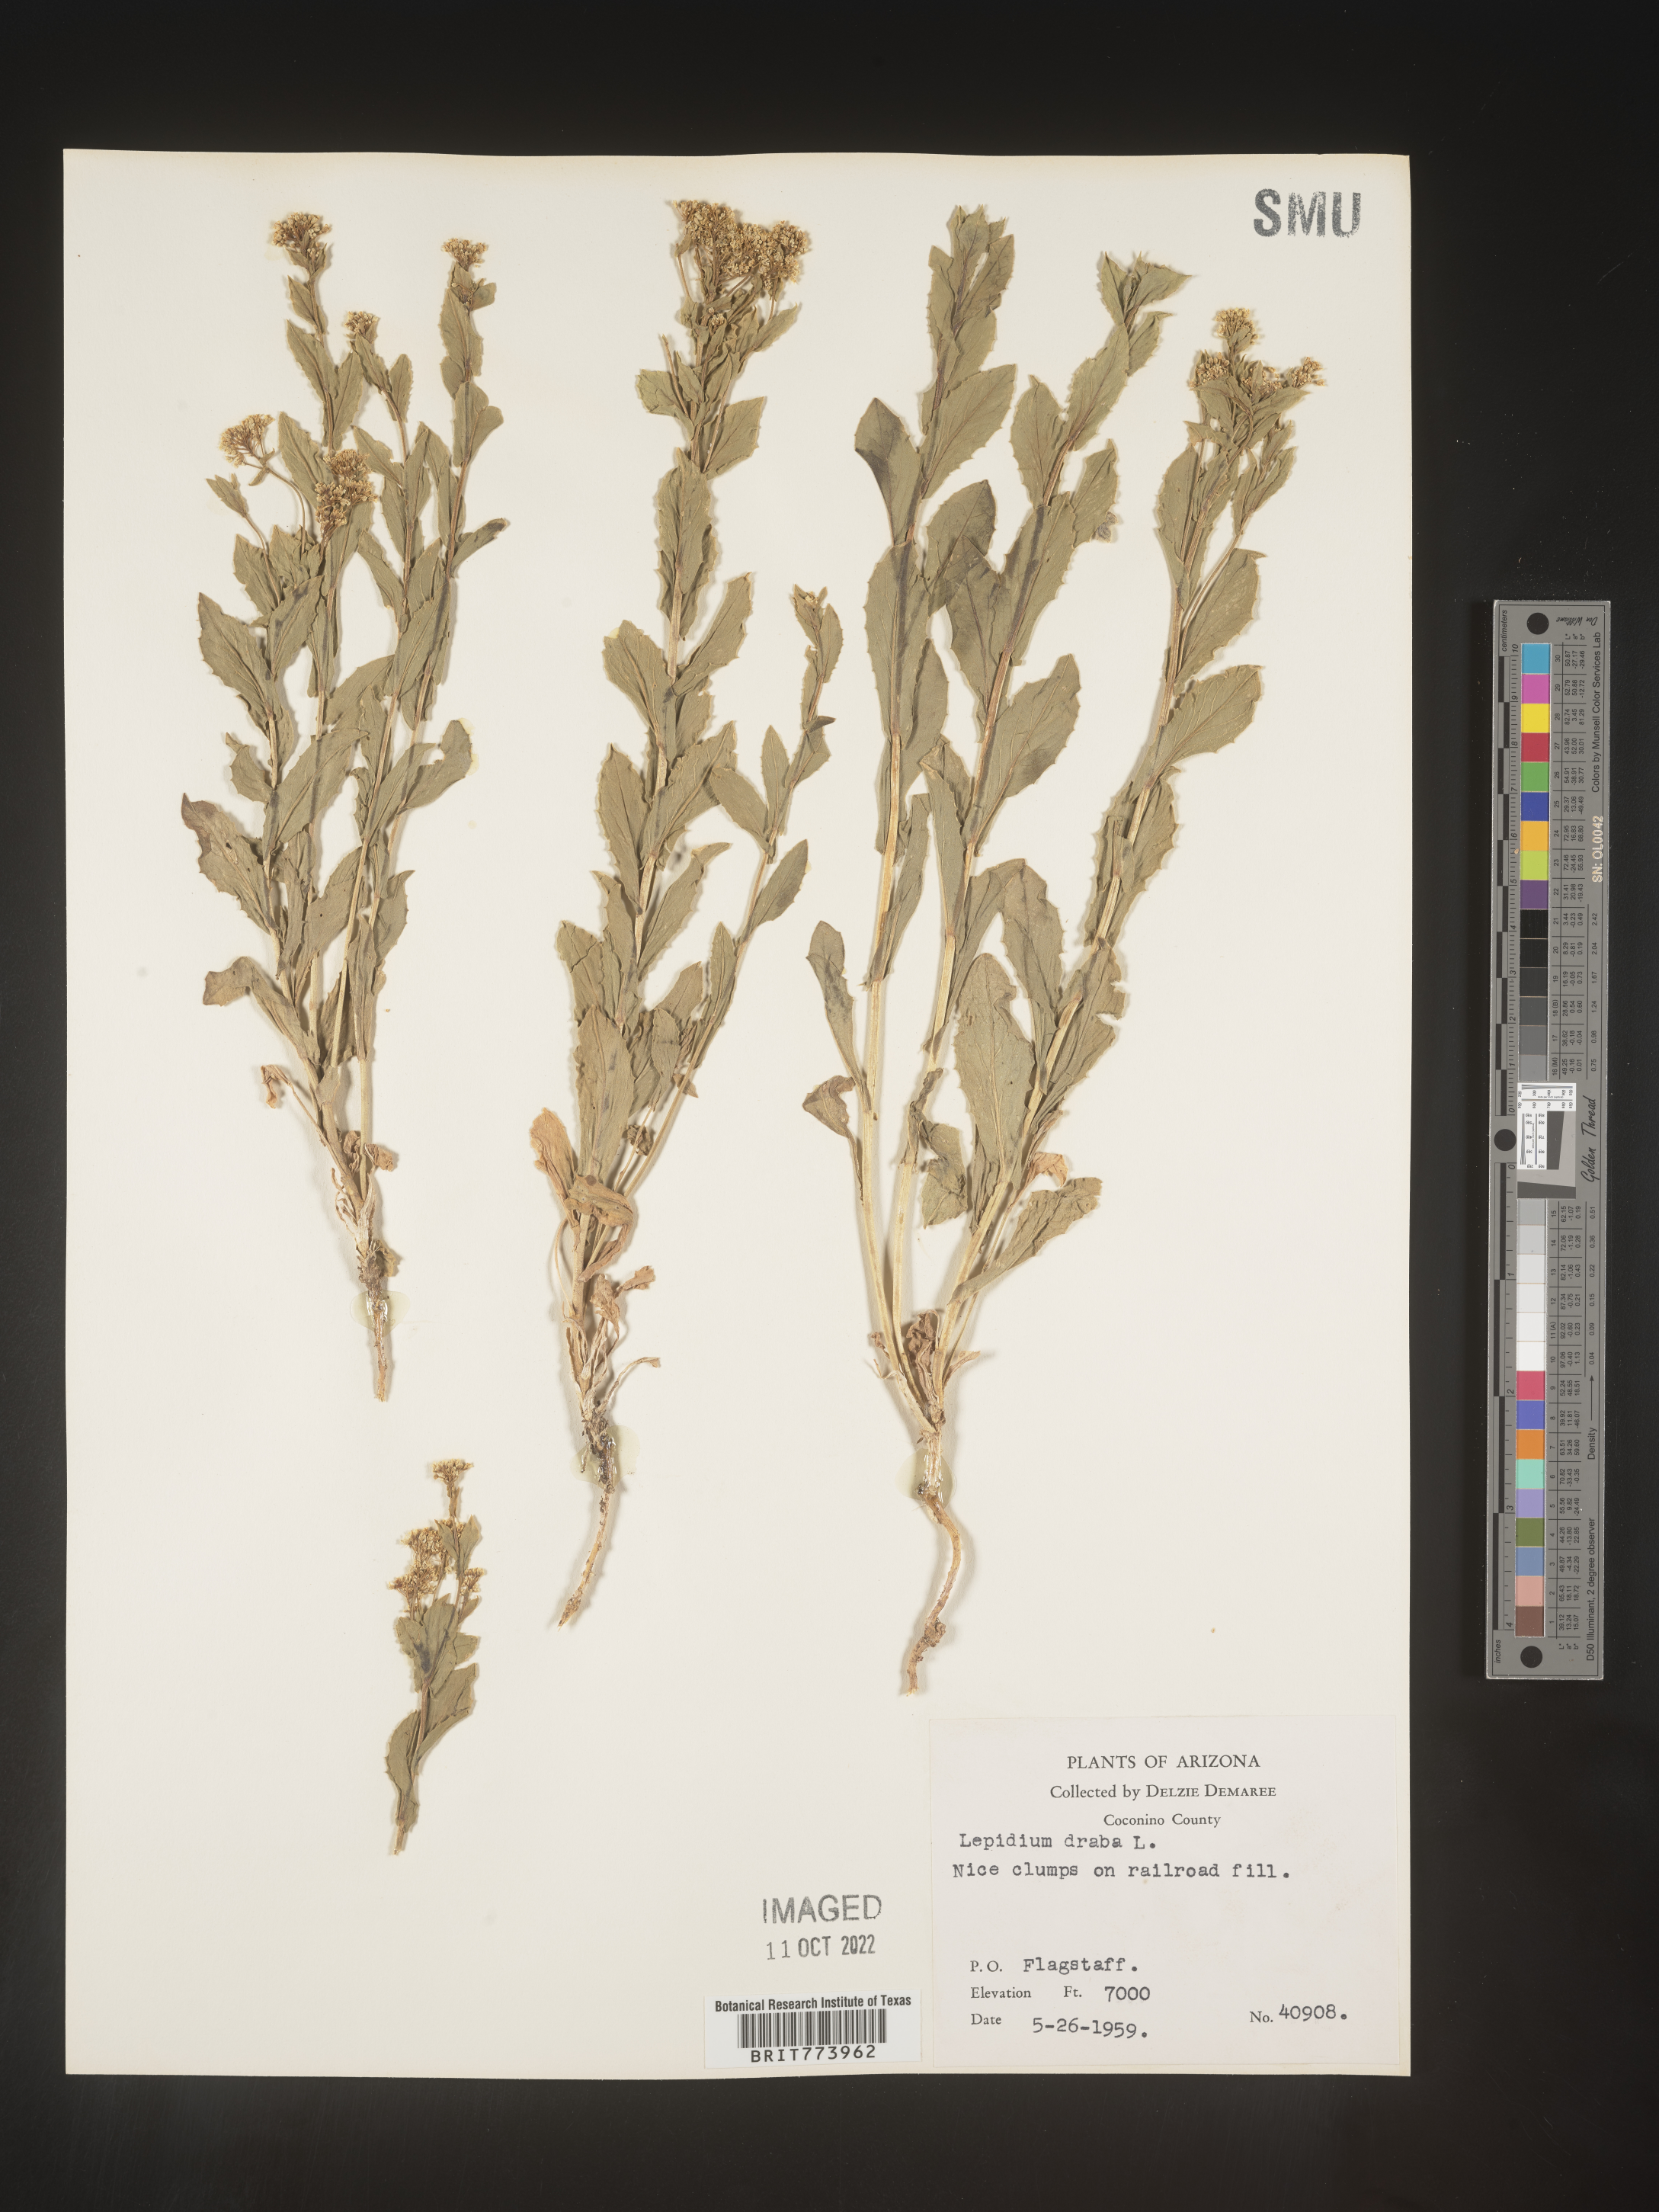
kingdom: Plantae
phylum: Tracheophyta
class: Magnoliopsida
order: Brassicales
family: Brassicaceae
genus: Lepidium
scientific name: Lepidium draba
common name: Hoary cress
